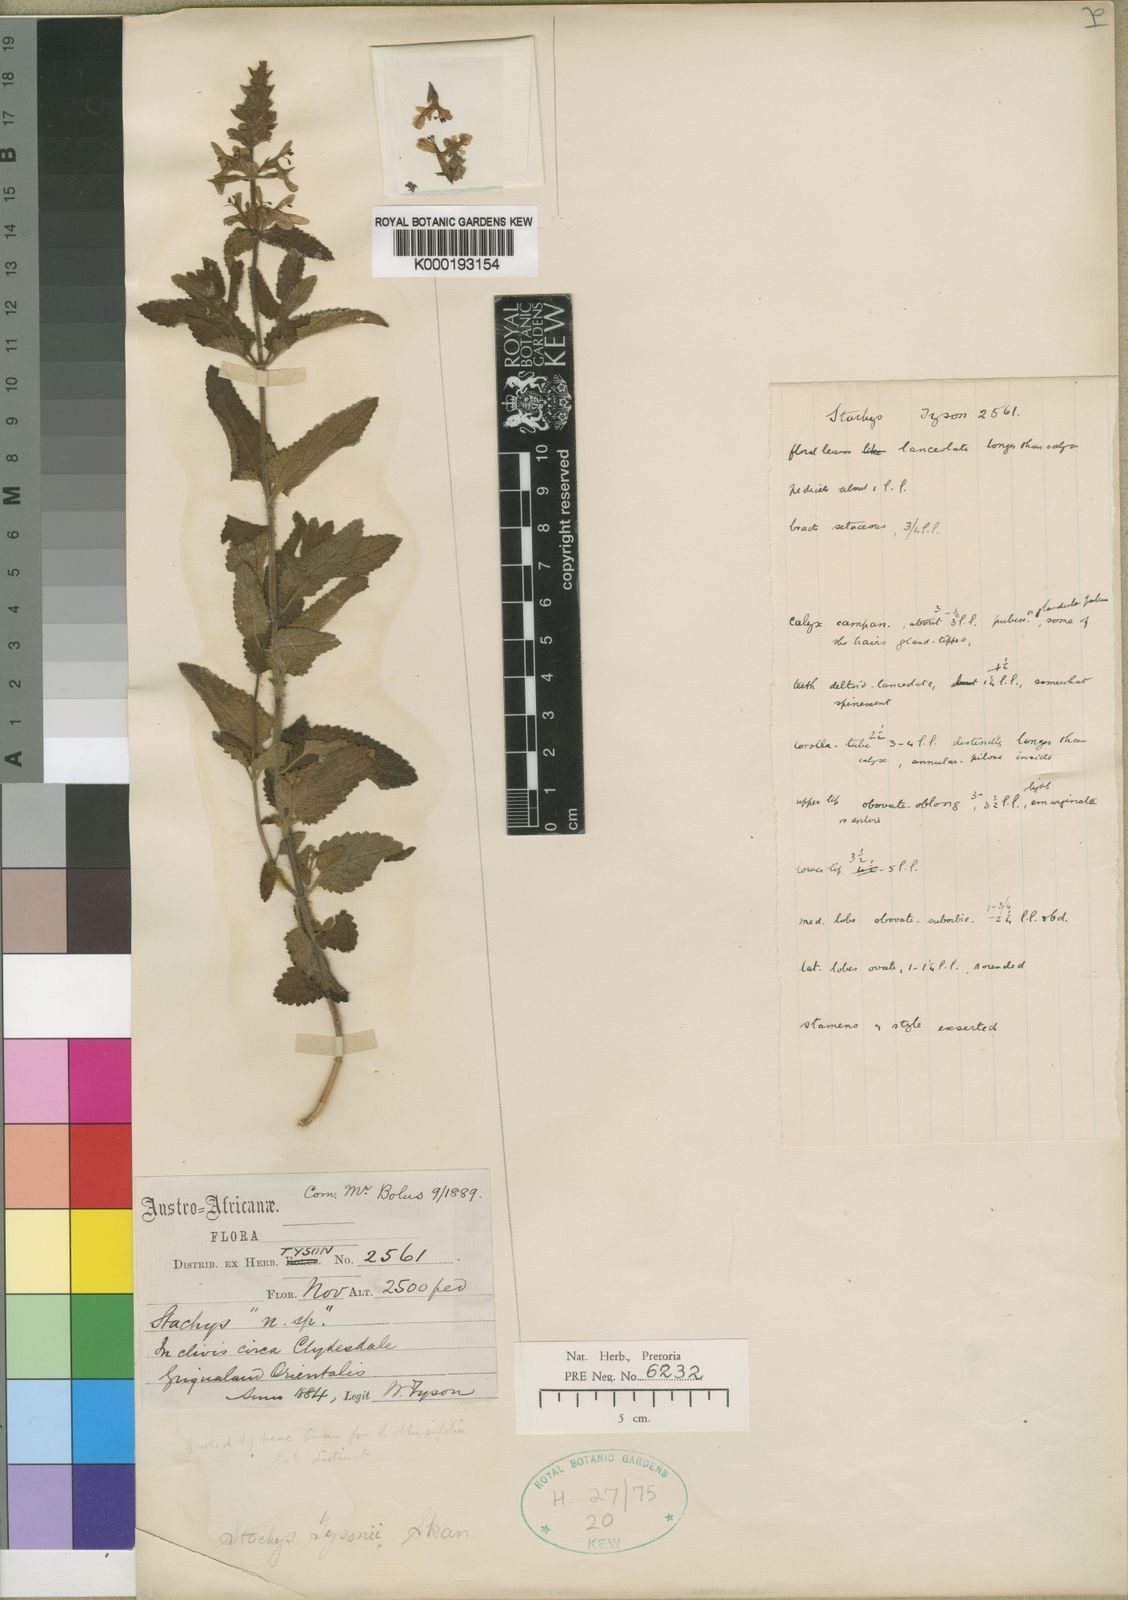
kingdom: Plantae
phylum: Tracheophyta
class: Magnoliopsida
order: Lamiales
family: Lamiaceae
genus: Stachys
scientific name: Stachys tysonii
